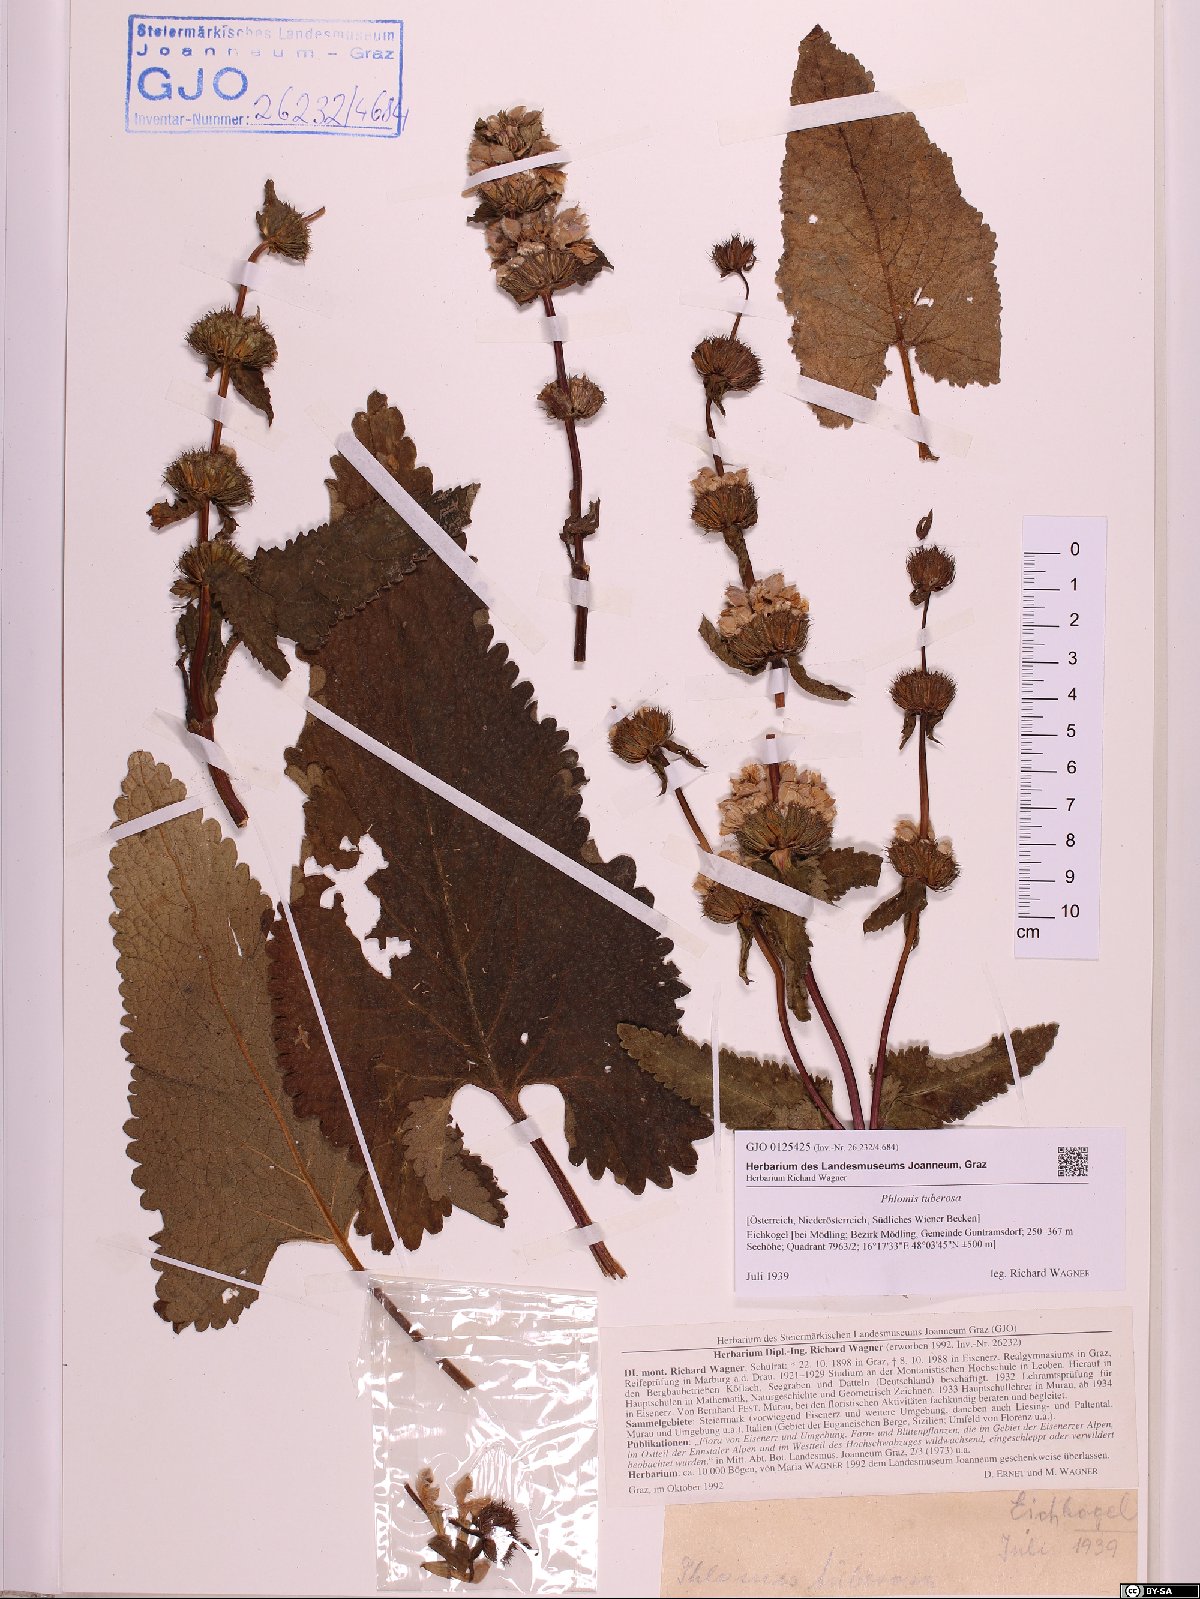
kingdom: Plantae
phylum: Tracheophyta
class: Magnoliopsida
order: Lamiales
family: Lamiaceae
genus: Phlomoides
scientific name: Phlomoides tuberosa
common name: Tuberous jerusalem sage
